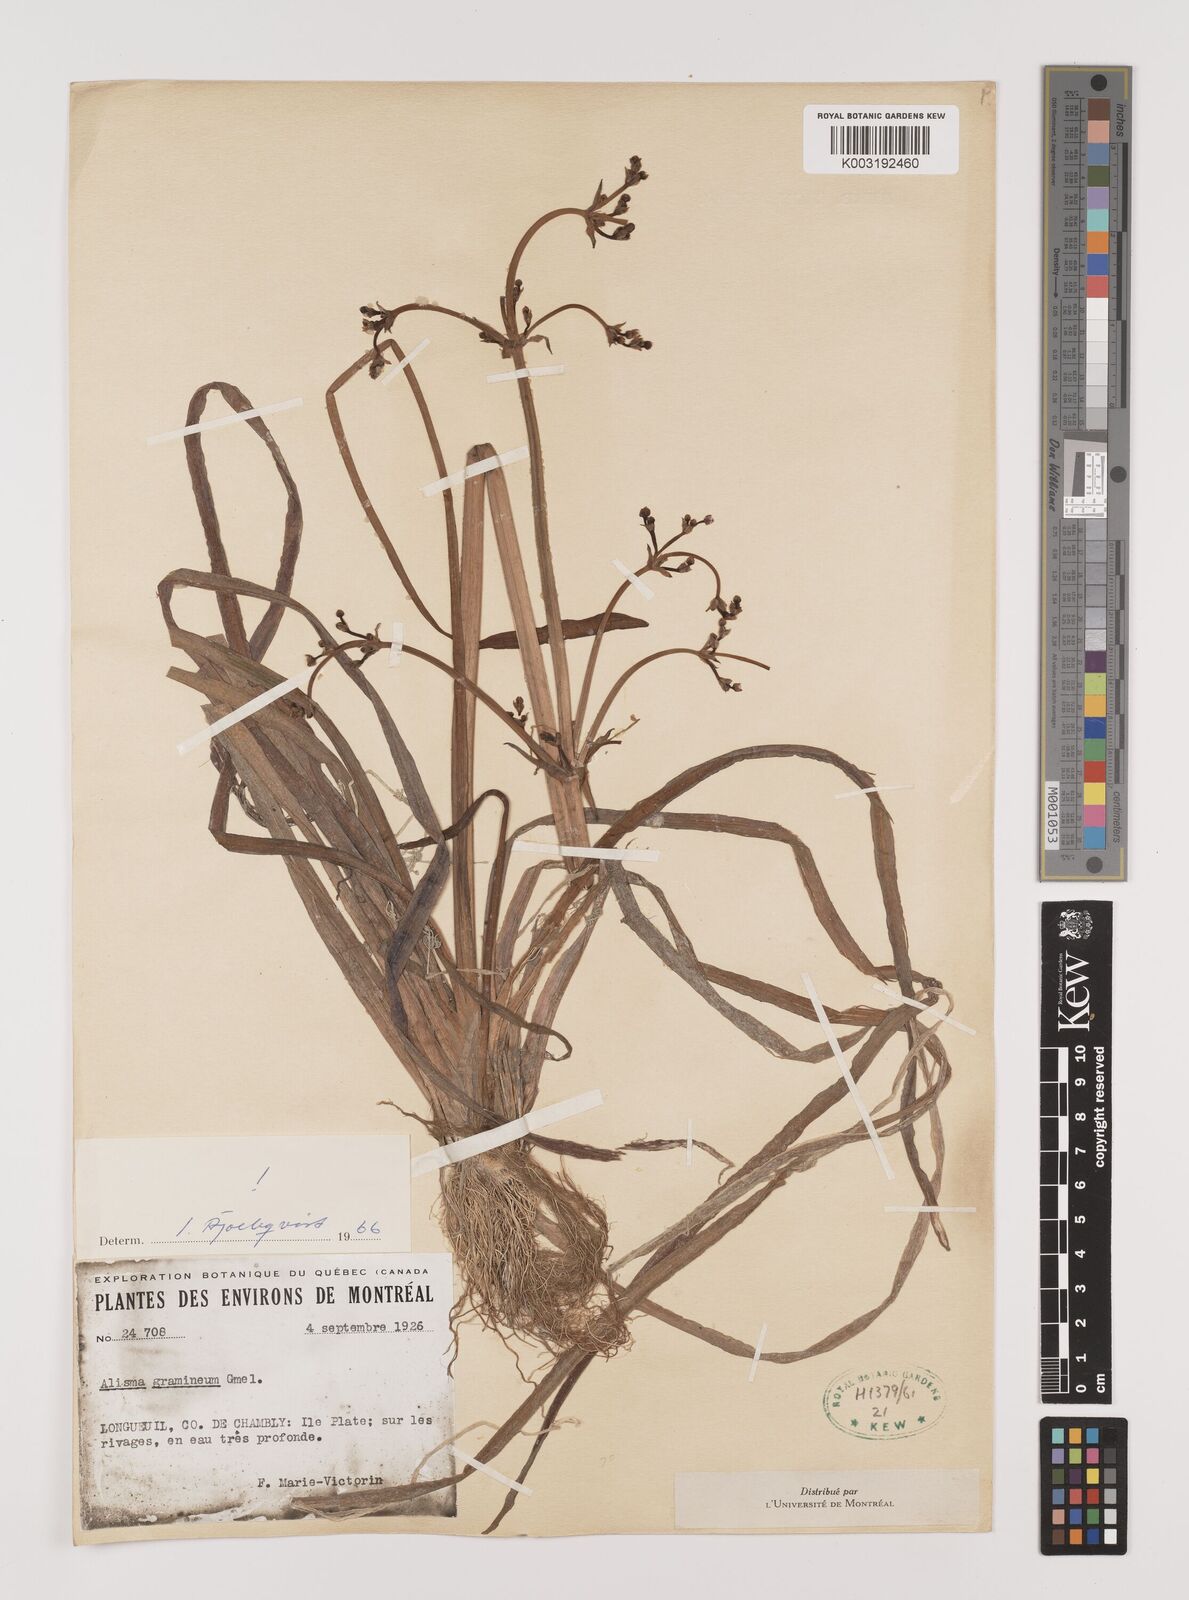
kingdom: Plantae
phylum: Tracheophyta
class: Liliopsida
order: Alismatales
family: Alismataceae
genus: Alisma
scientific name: Alisma gramineum
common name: Ribbon-leaved water-plantain
